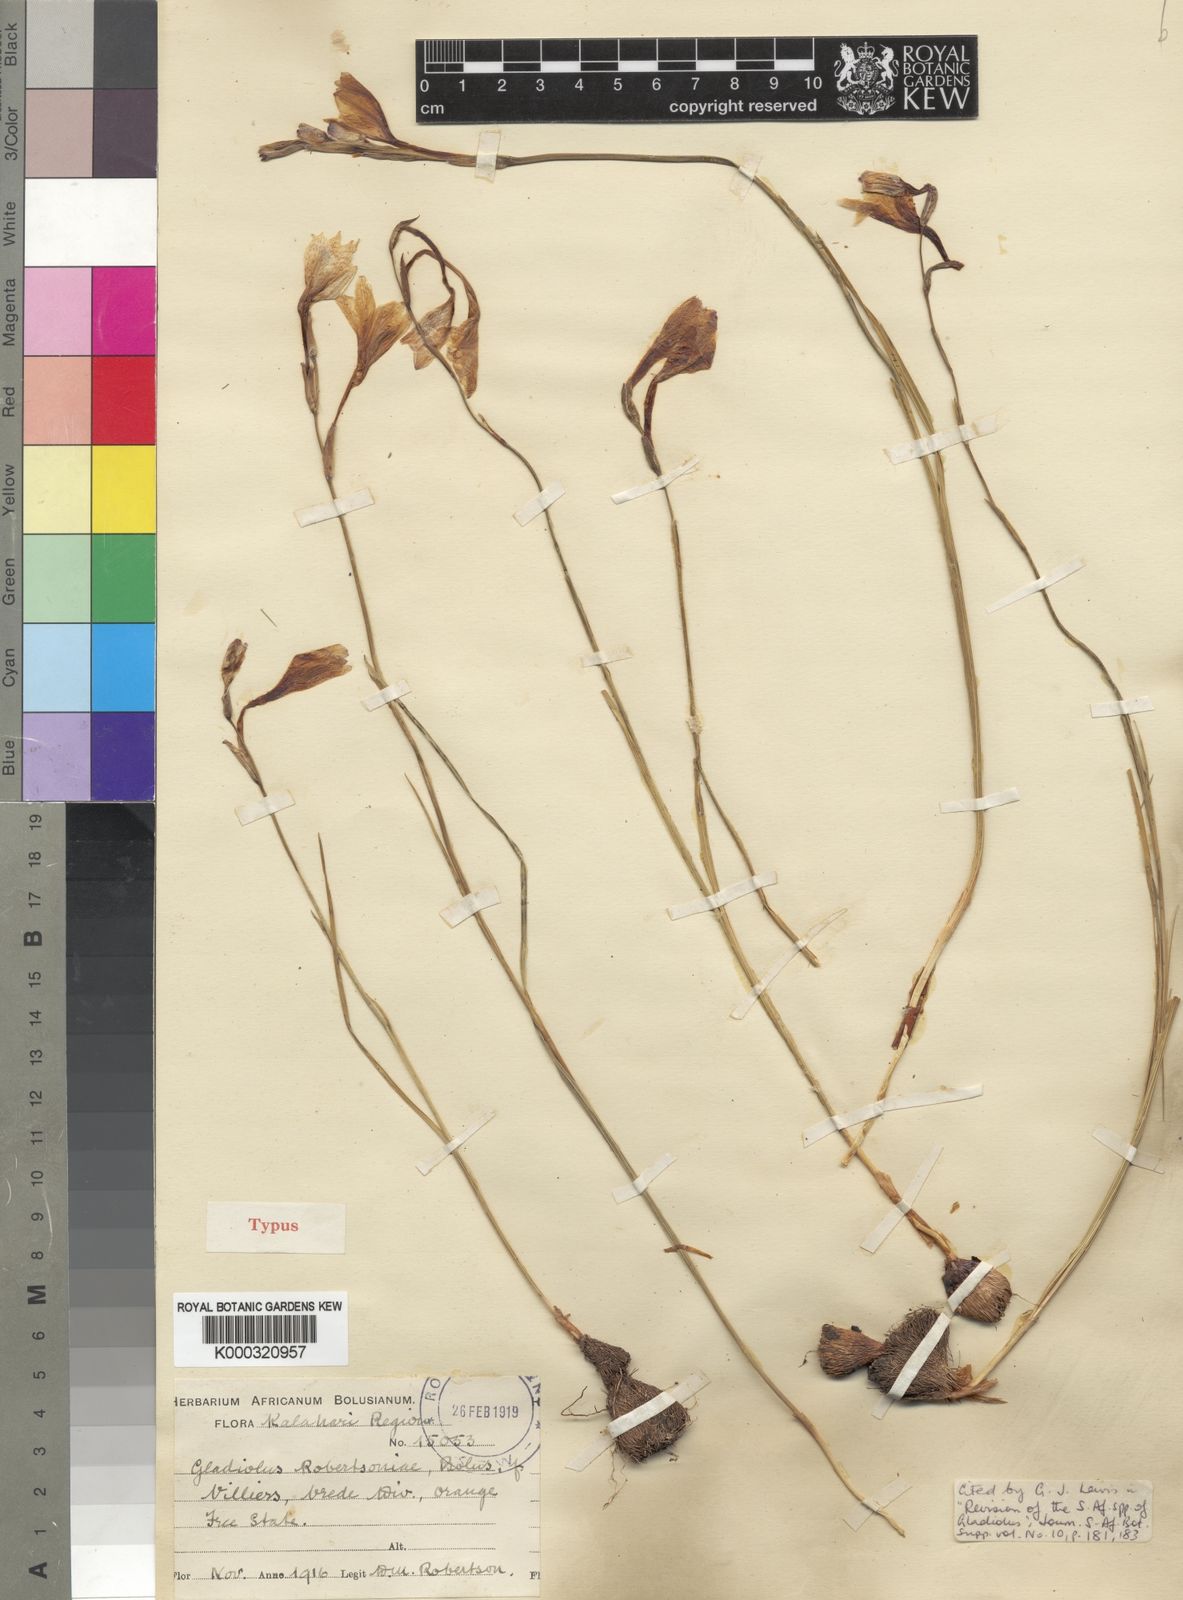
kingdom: Plantae
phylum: Tracheophyta
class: Liliopsida
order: Asparagales
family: Iridaceae
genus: Gladiolus
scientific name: Gladiolus robertsoniae
